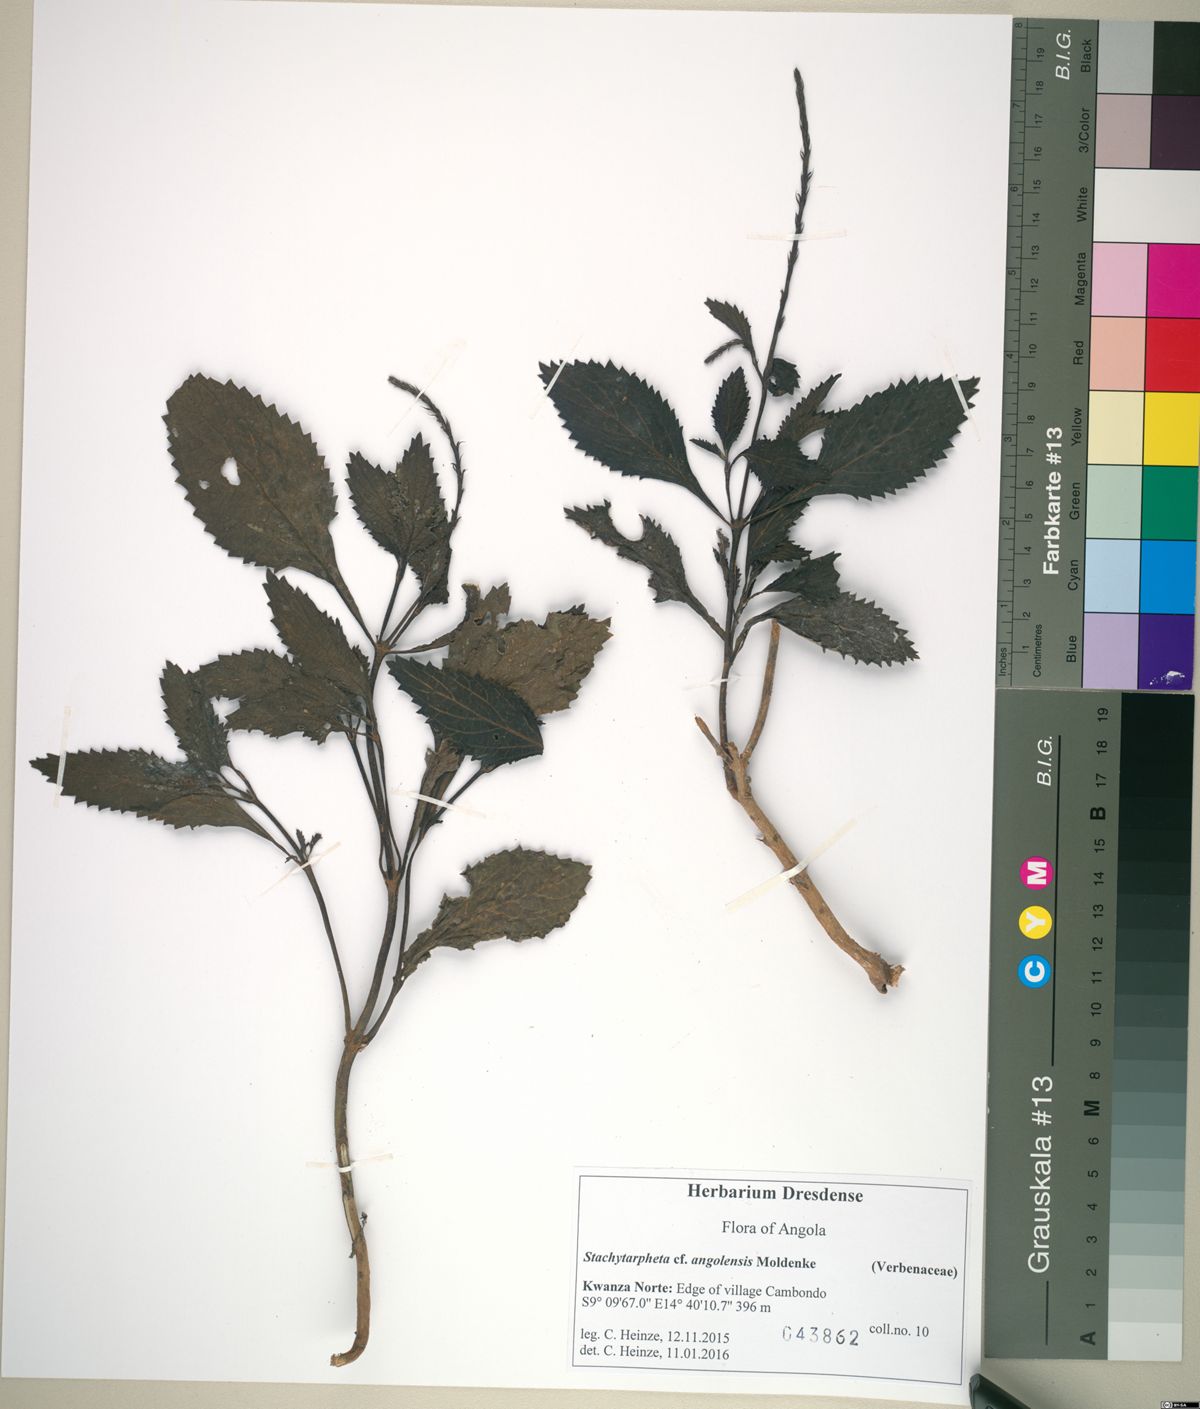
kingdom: Plantae
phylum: Tracheophyta
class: Magnoliopsida
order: Lamiales
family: Verbenaceae
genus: Stachytarpheta
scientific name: Stachytarpheta cayennensis
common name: Cayenne porterweed
